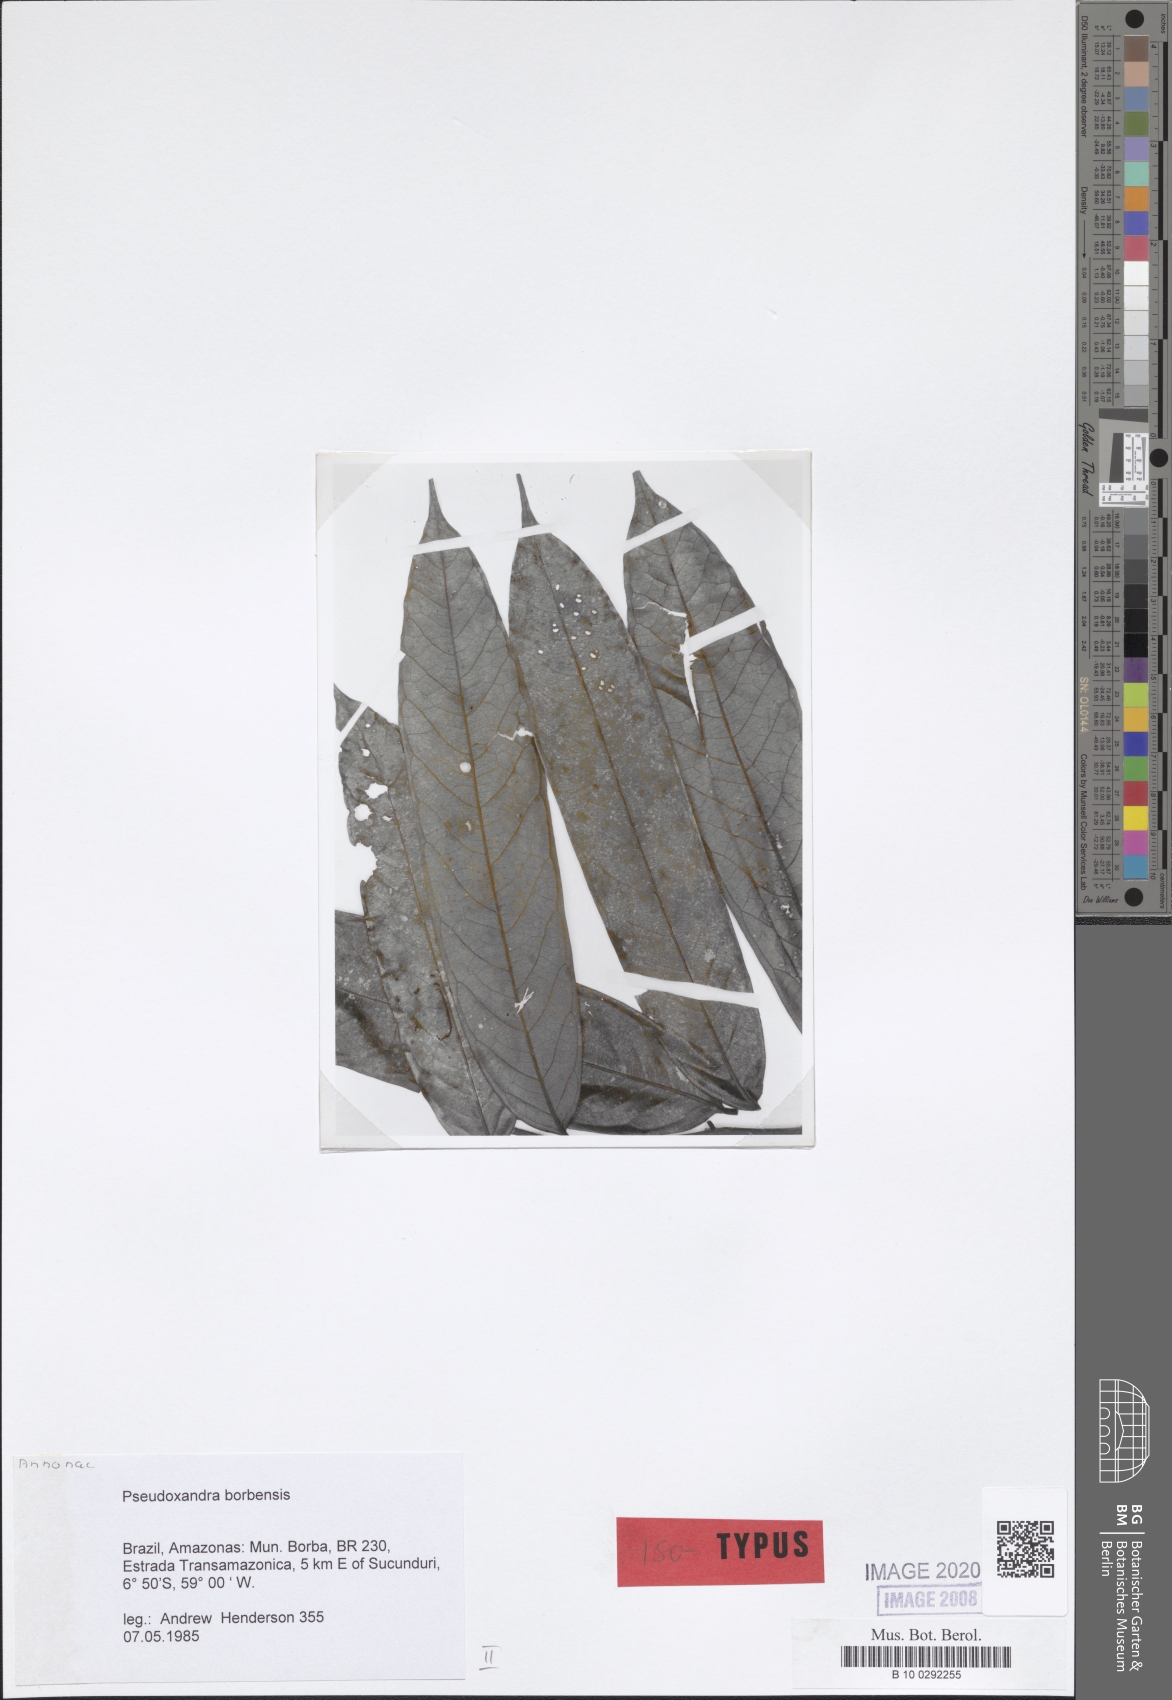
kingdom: Plantae
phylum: Tracheophyta
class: Magnoliopsida
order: Magnoliales
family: Annonaceae
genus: Pseudoxandra
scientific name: Pseudoxandra borbensis
